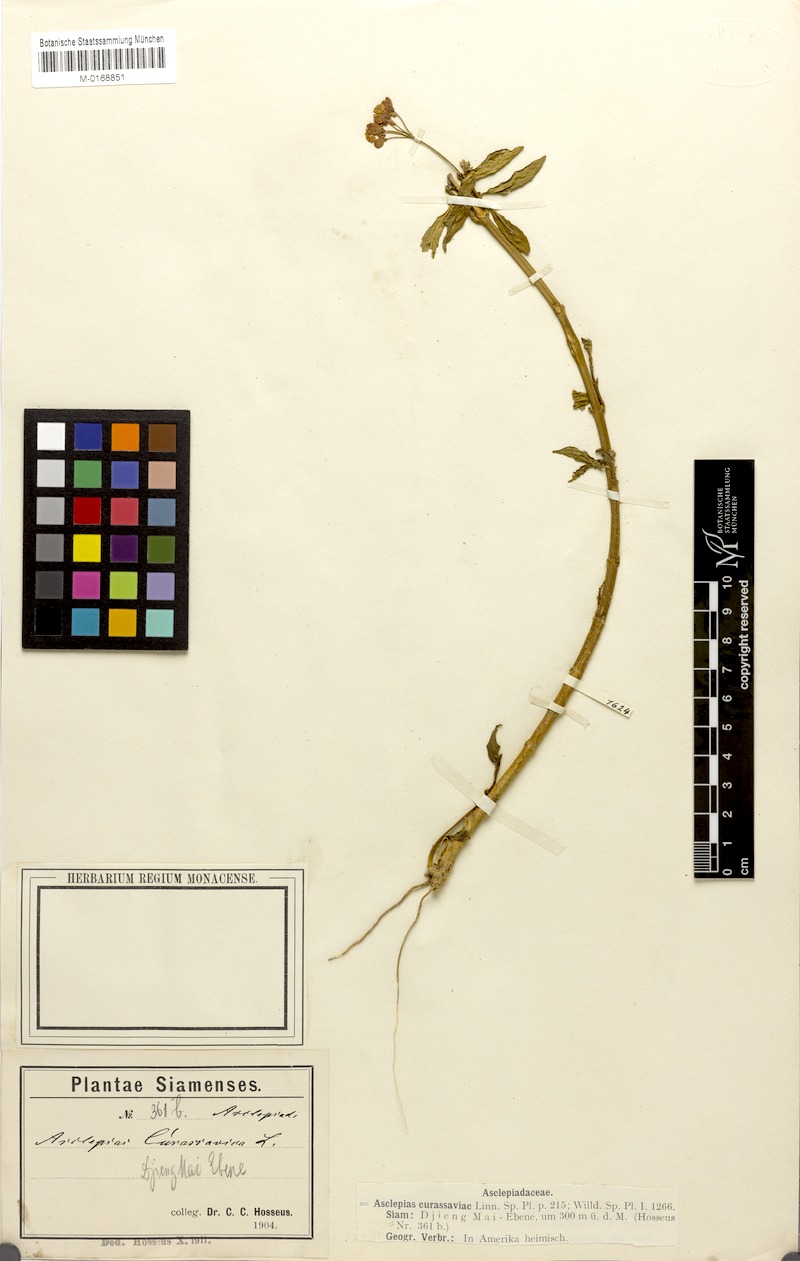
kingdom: Plantae
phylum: Tracheophyta
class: Magnoliopsida
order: Gentianales
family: Apocynaceae
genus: Asclepias
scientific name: Asclepias curassavica
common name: Bloodflower
